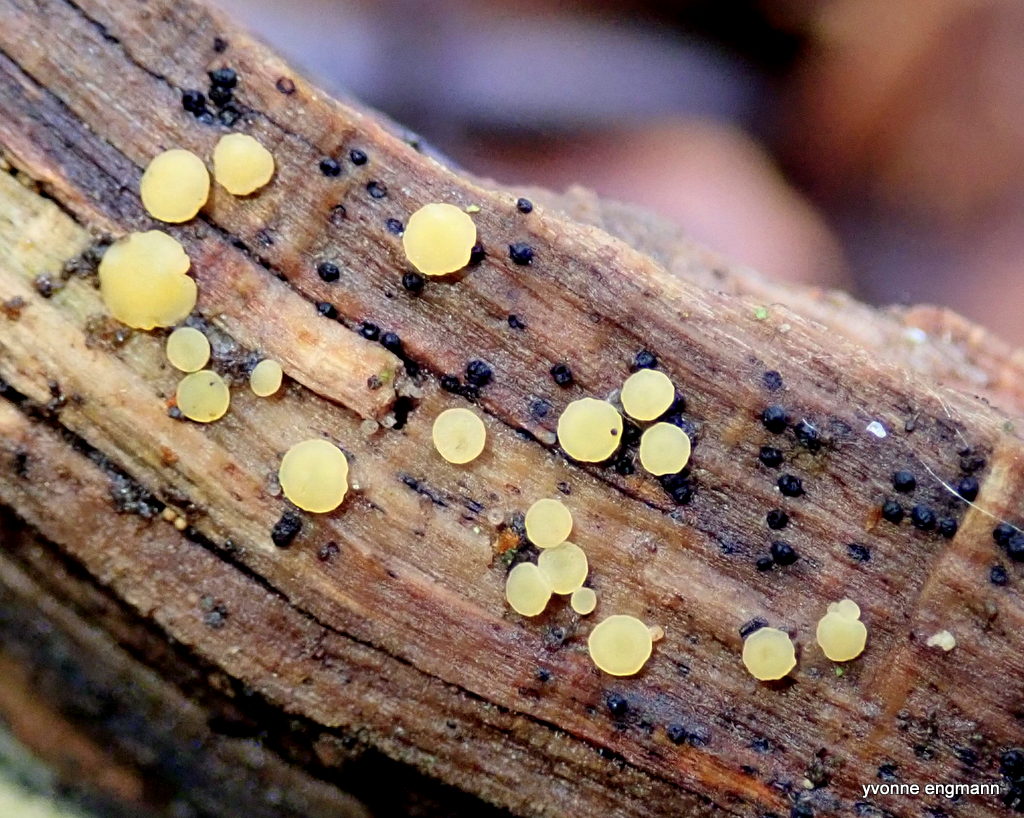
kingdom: Fungi
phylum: Ascomycota
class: Leotiomycetes
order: Helotiales
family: Pezizellaceae
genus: Calycina
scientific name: Calycina citrina
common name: almindelig gulskive
